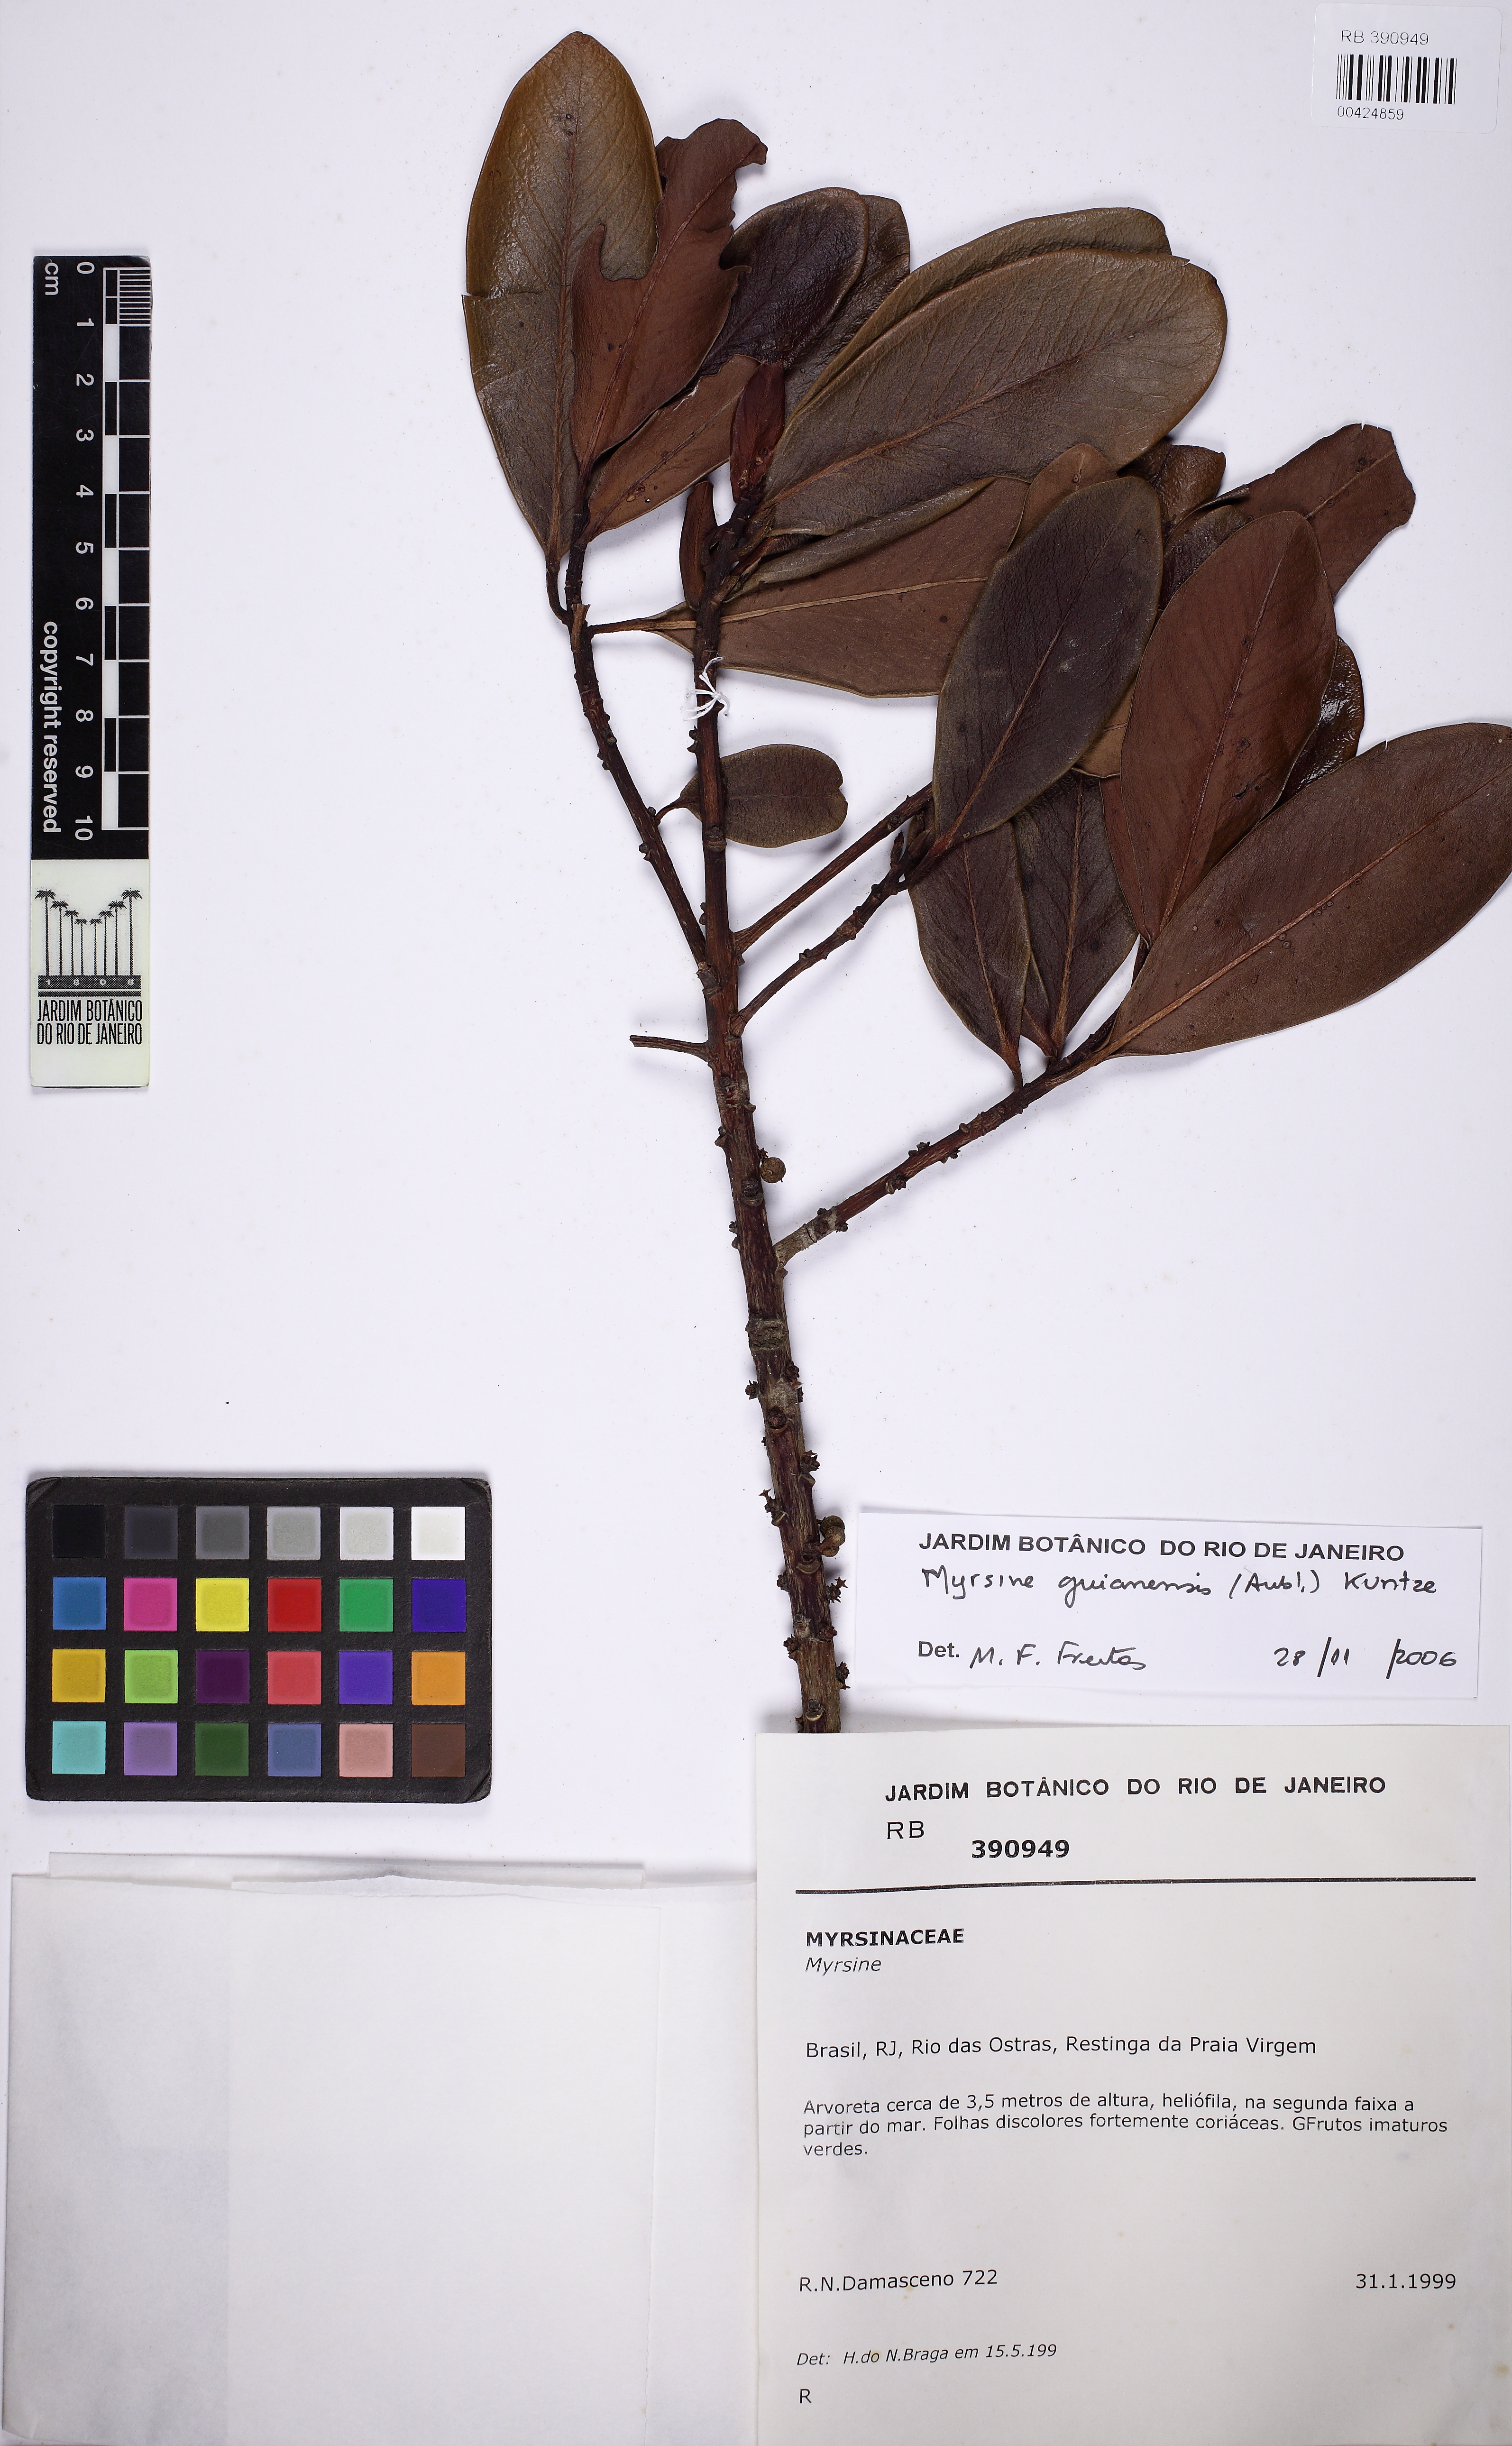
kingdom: Plantae
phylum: Tracheophyta
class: Magnoliopsida
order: Ericales
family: Primulaceae
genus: Myrsine
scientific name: Myrsine guianensis
